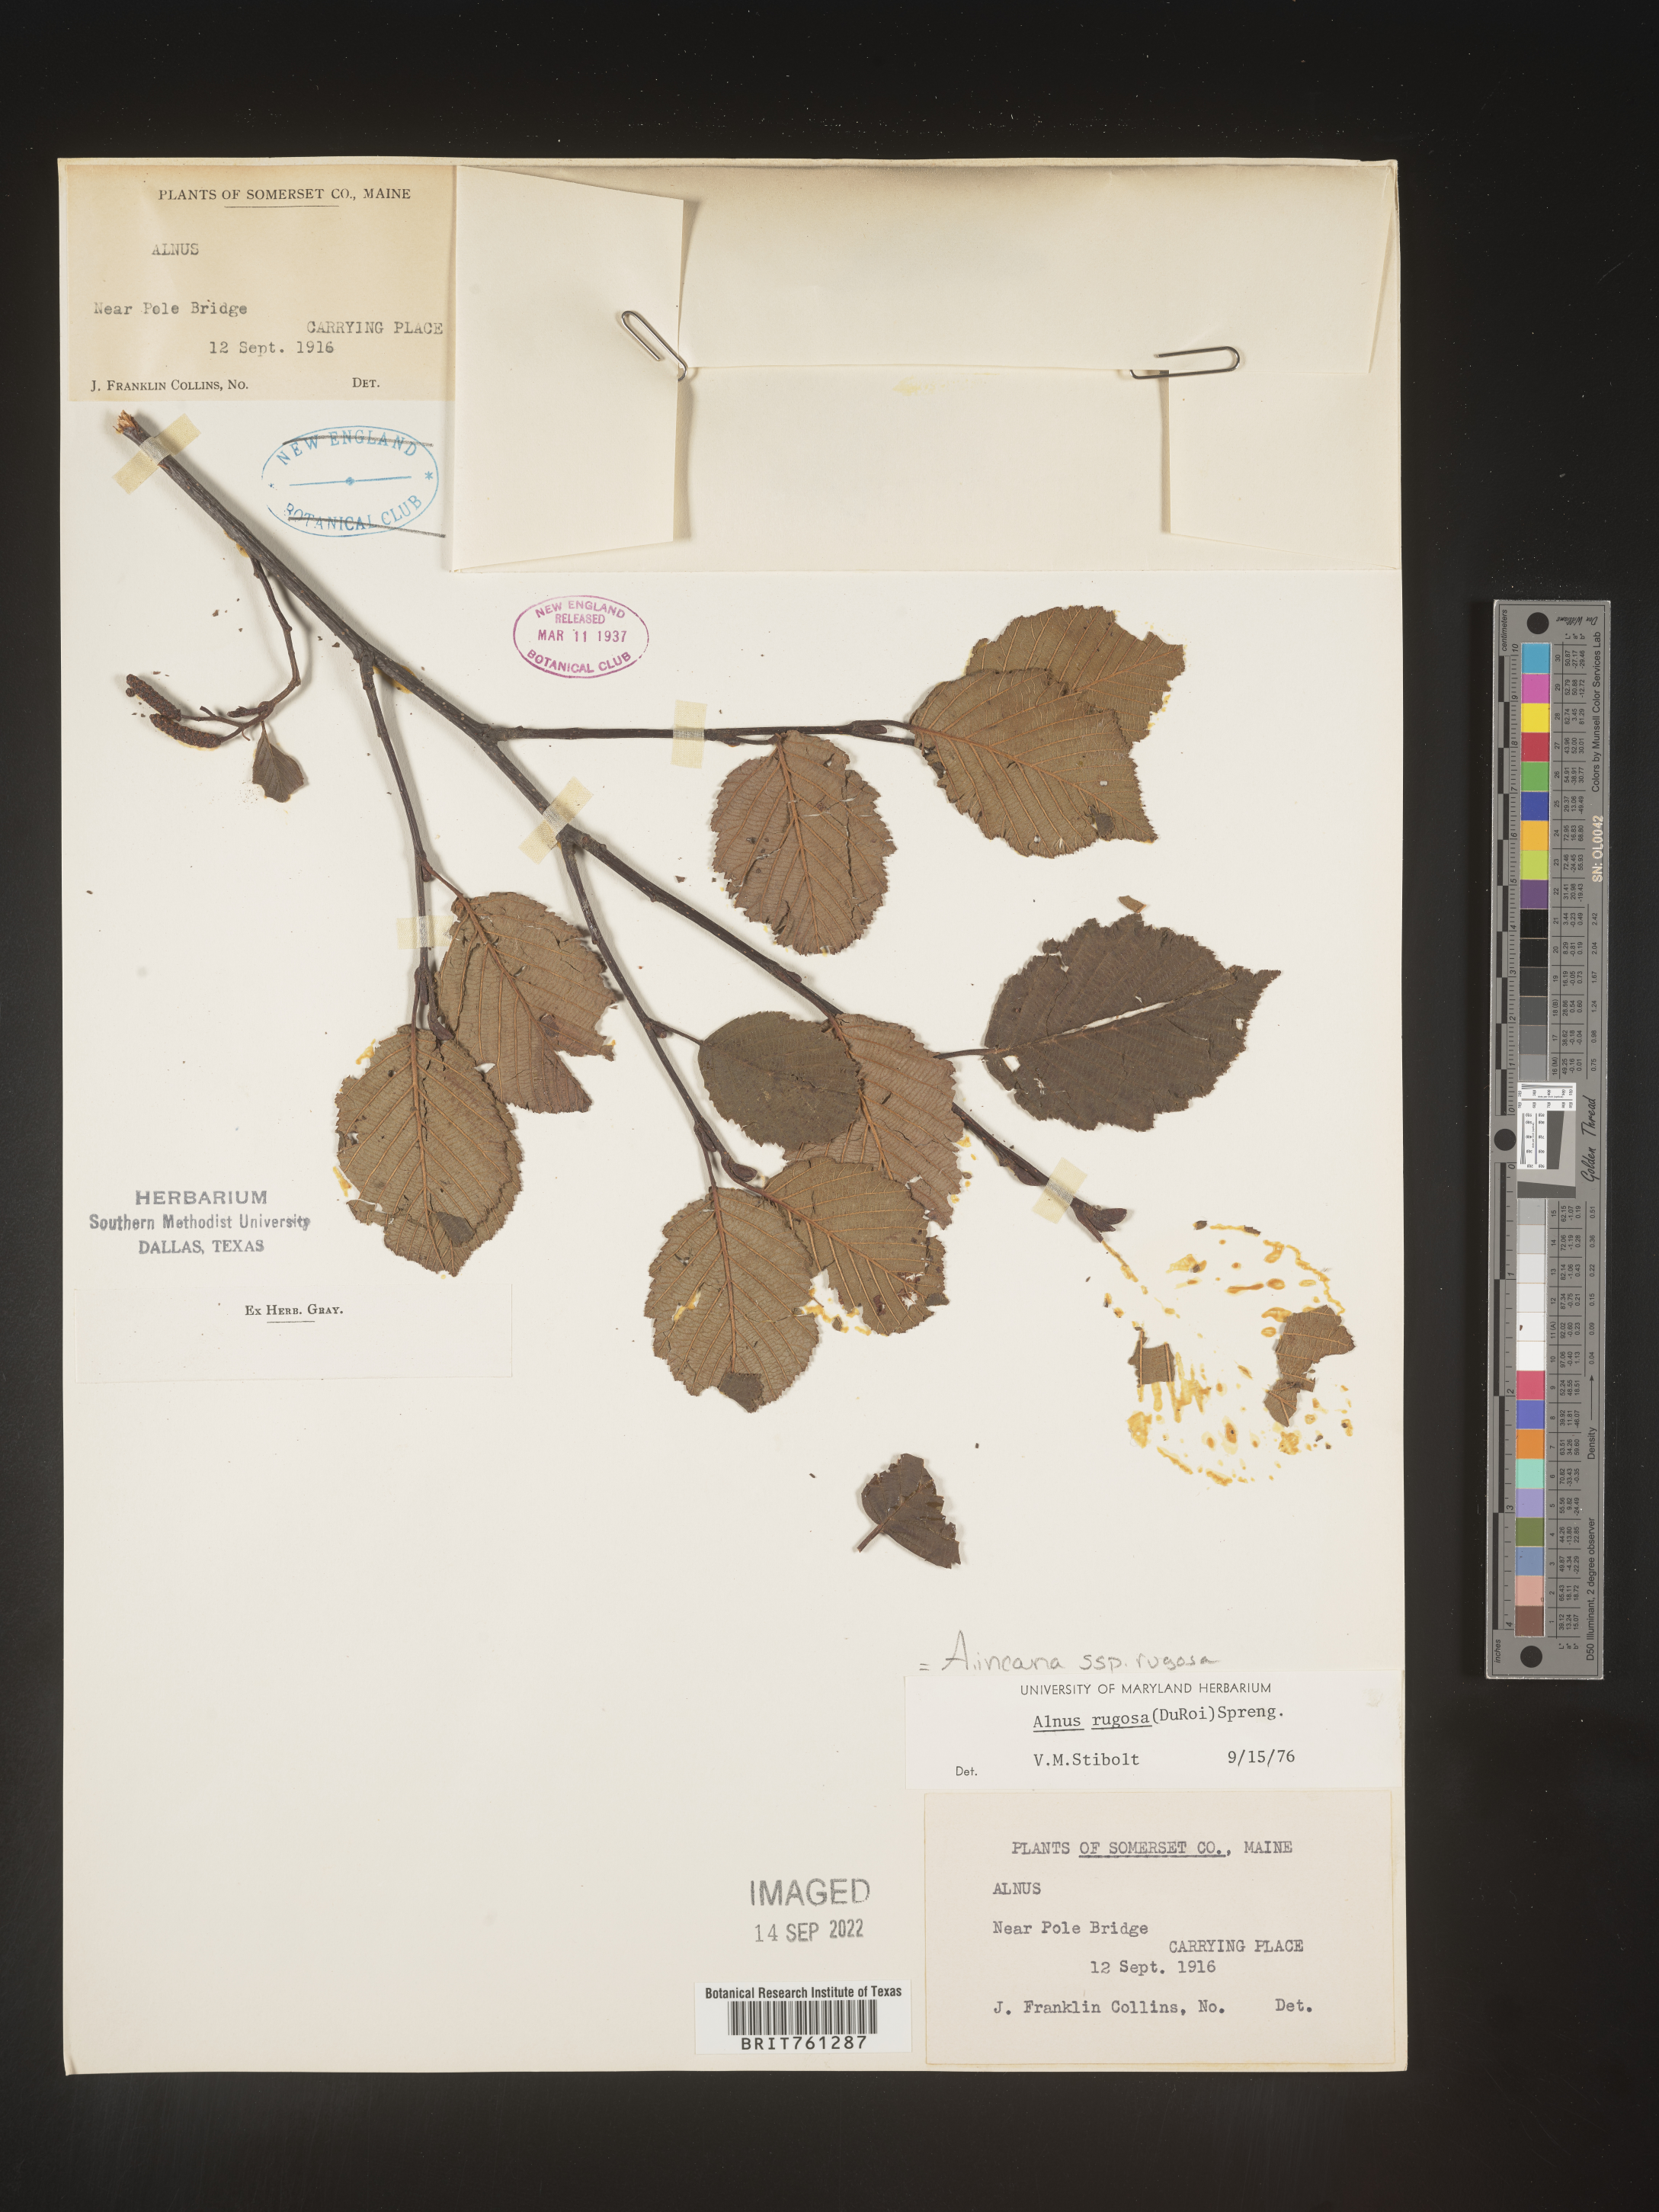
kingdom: Plantae
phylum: Tracheophyta
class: Magnoliopsida
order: Fagales
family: Betulaceae
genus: Alnus
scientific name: Alnus incana
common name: Grey alder
